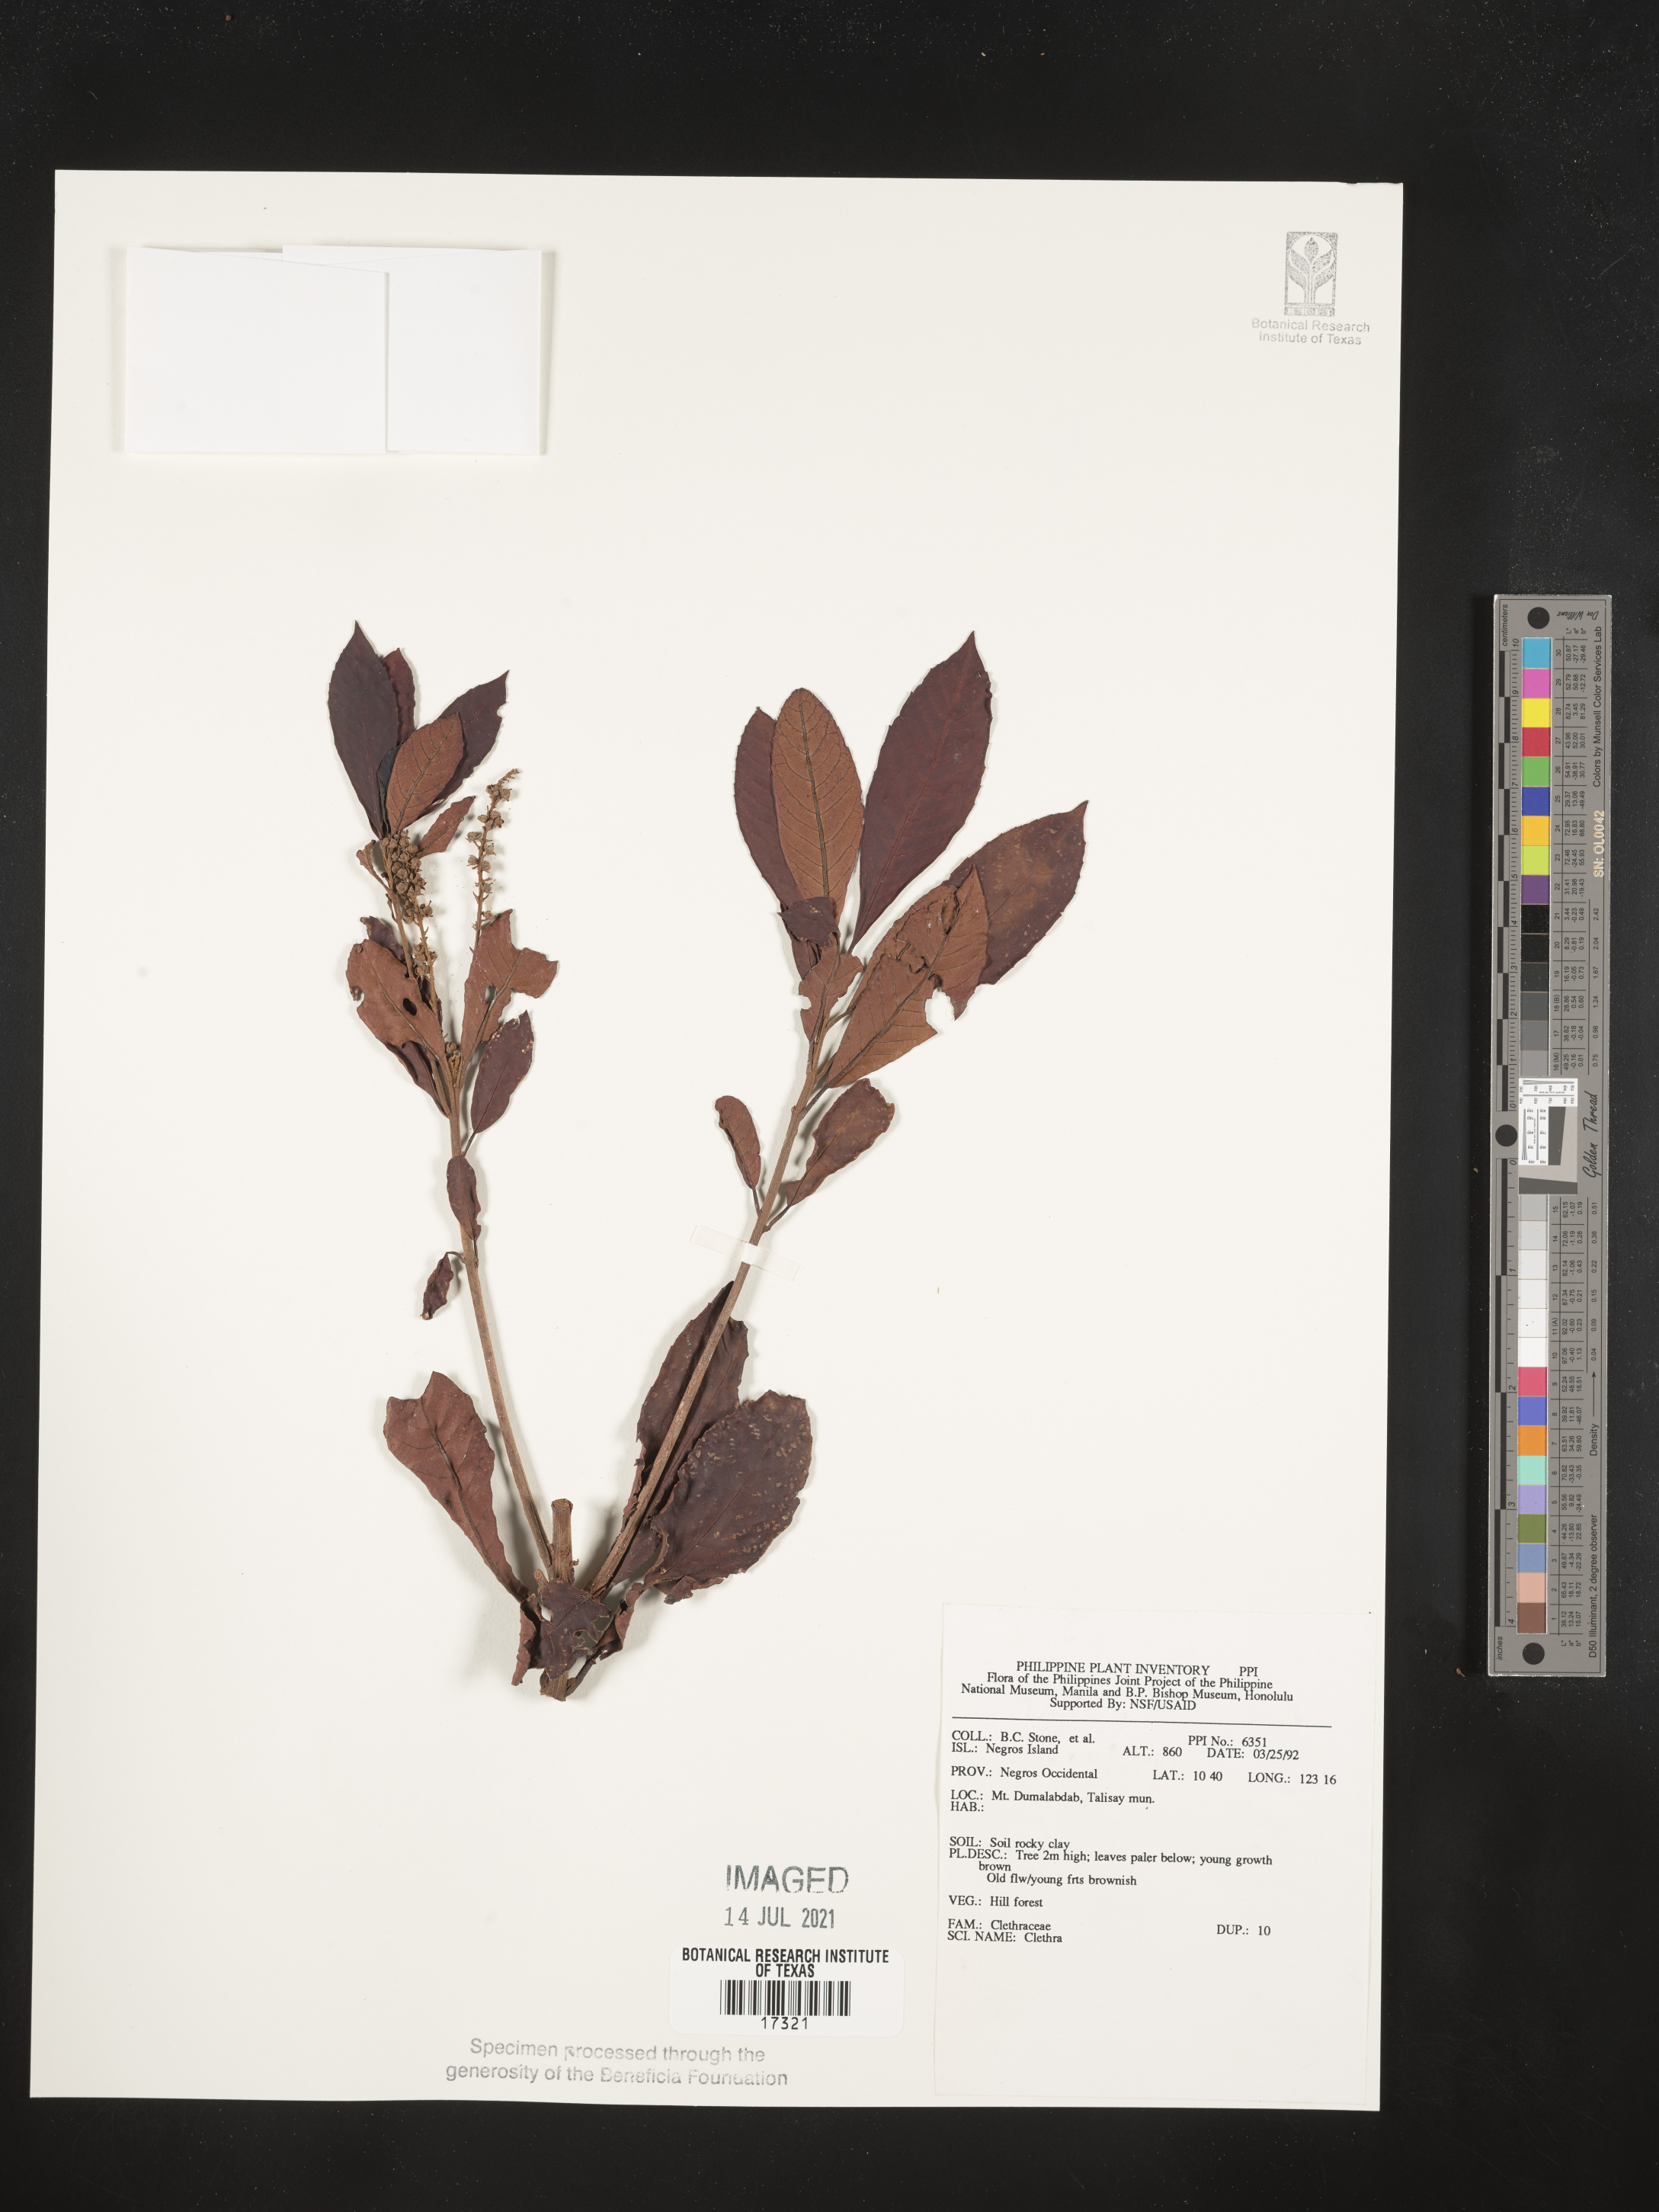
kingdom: Plantae
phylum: Tracheophyta
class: Magnoliopsida
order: Ericales
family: Clethraceae
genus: Clethra
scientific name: Clethra
